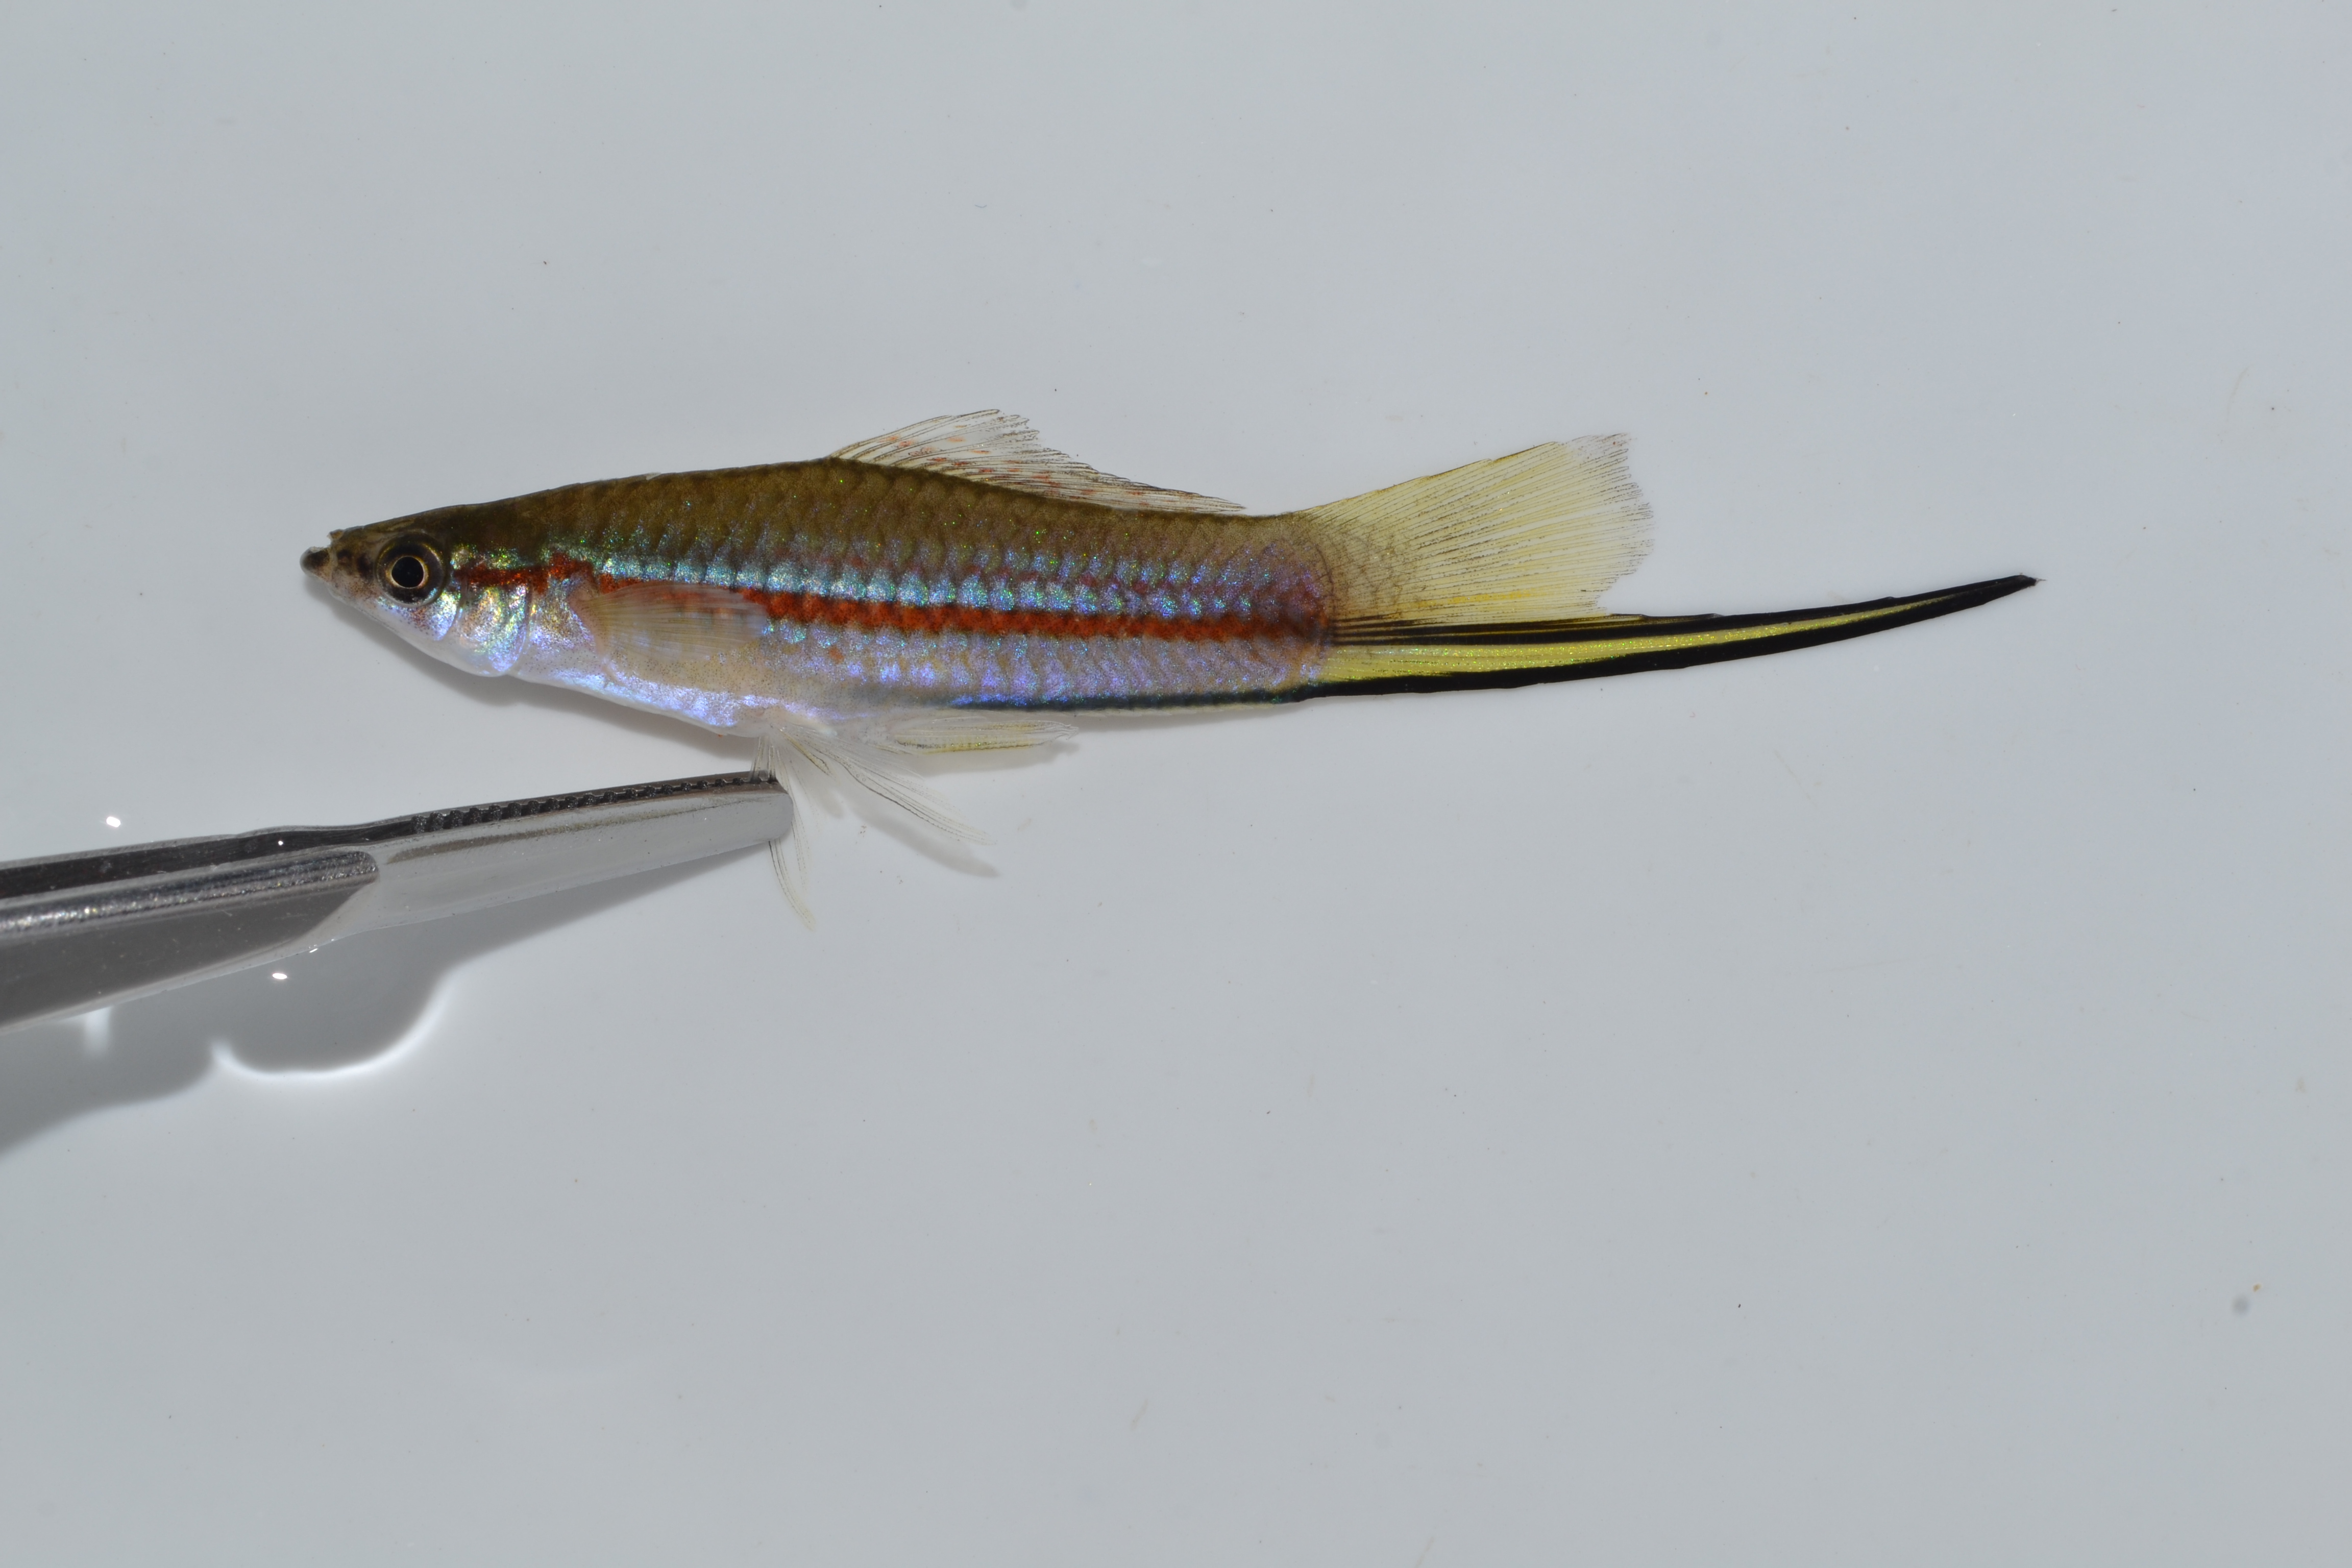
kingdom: Animalia
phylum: Chordata
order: Cyprinodontiformes
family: Poeciliidae
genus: Xiphophorus
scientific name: Xiphophorus hellerii
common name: Green swordtail
